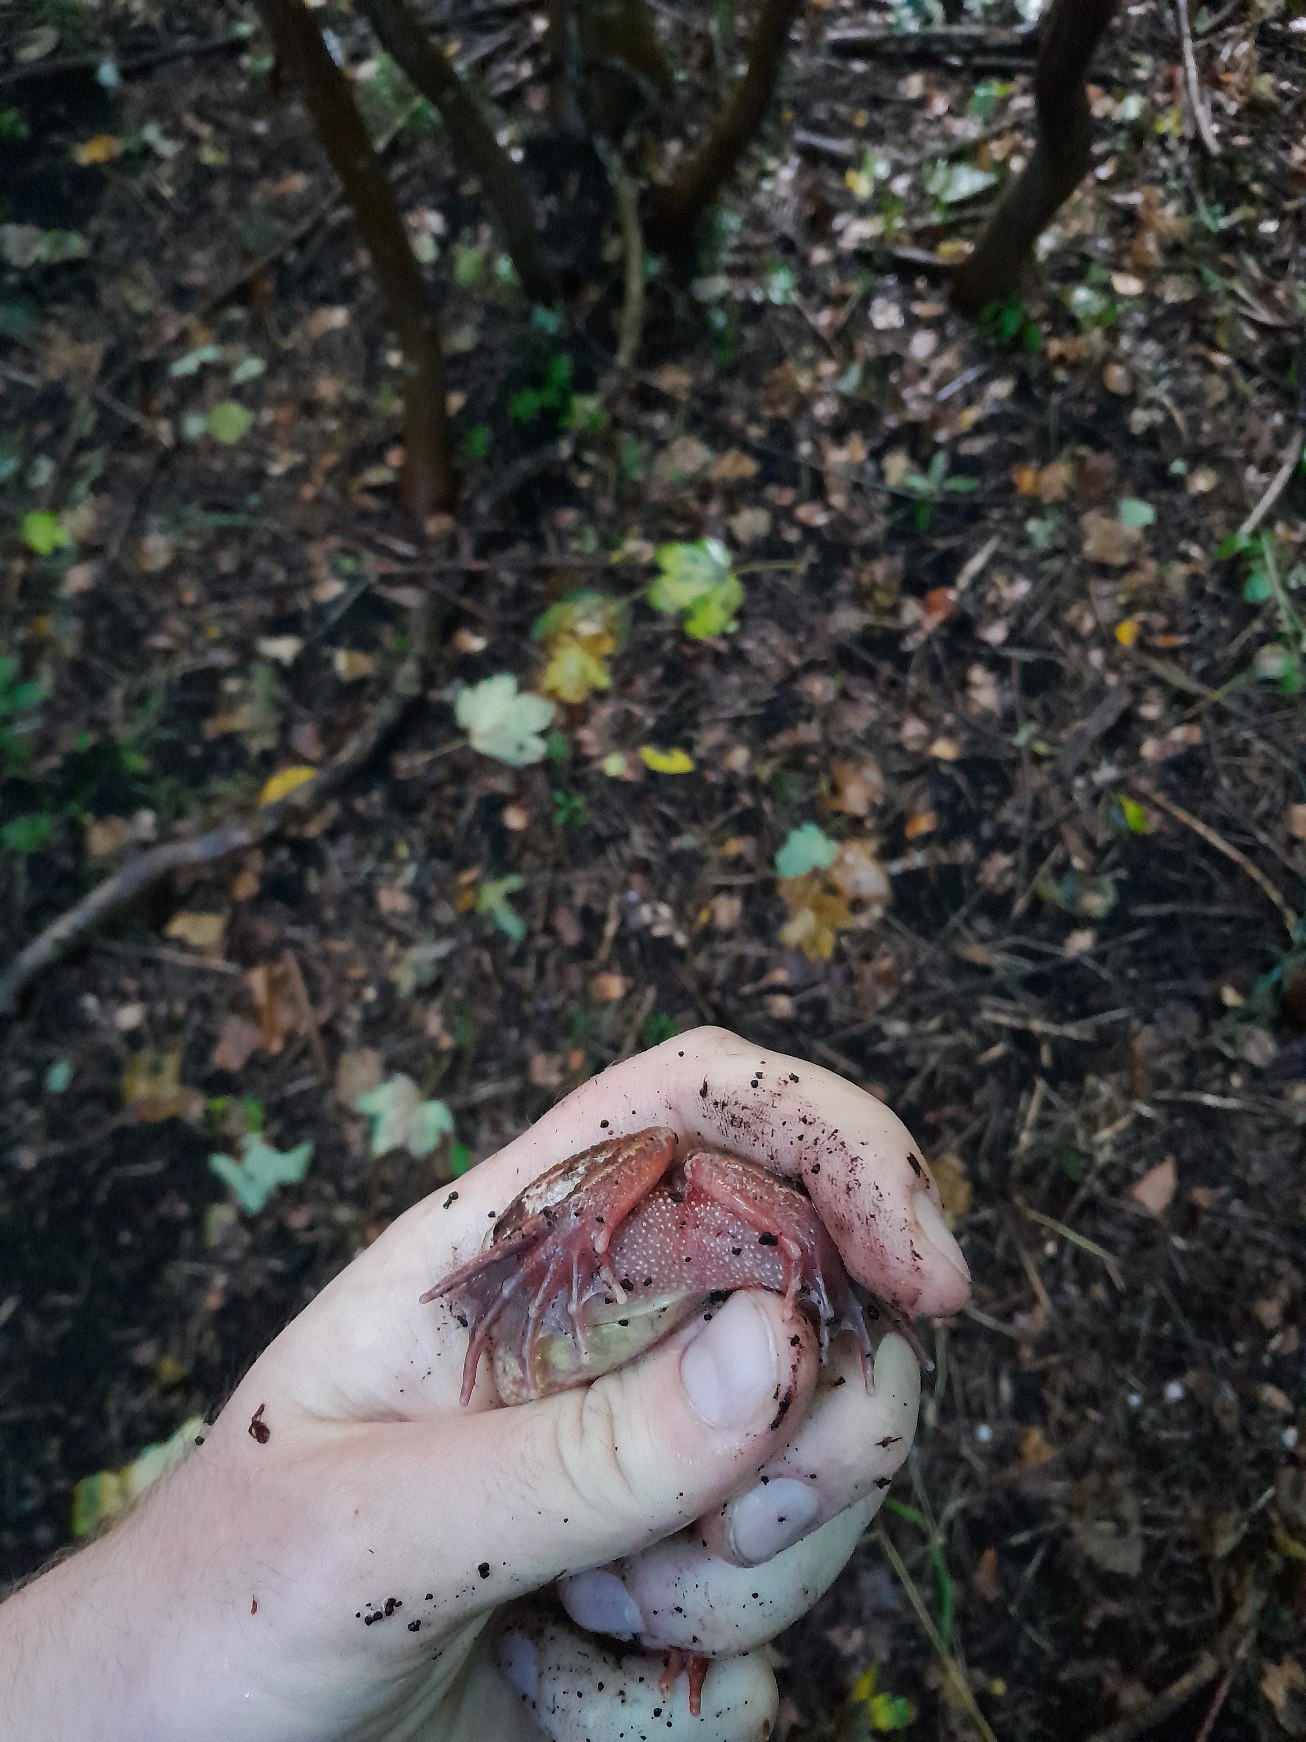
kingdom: Animalia
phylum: Chordata
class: Amphibia
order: Anura
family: Ranidae
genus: Rana
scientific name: Rana temporaria
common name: Butsnudet frø
